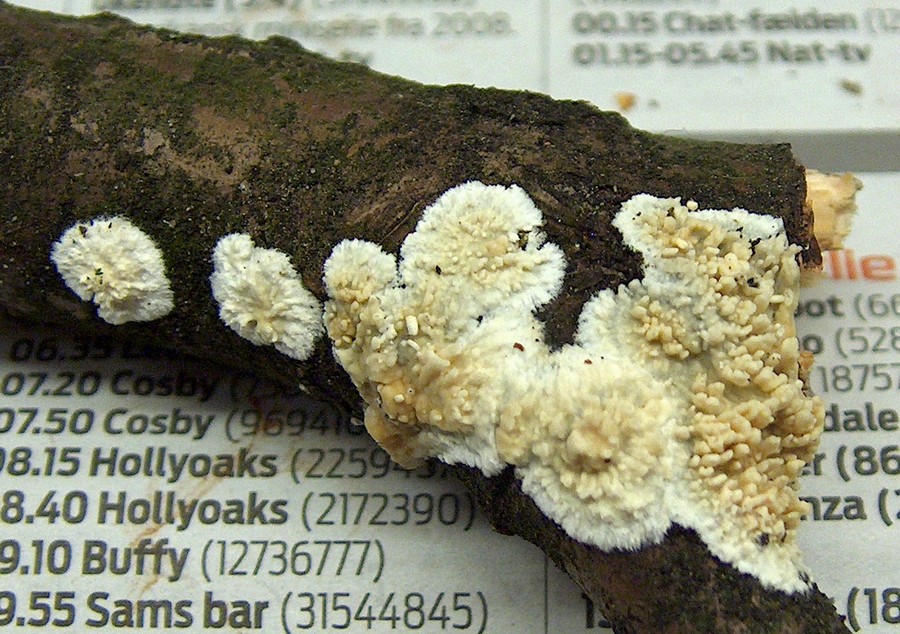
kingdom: Fungi
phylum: Basidiomycota
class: Agaricomycetes
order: Hymenochaetales
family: Schizoporaceae
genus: Xylodon
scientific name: Xylodon radula
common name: grovtandet kalkskind
